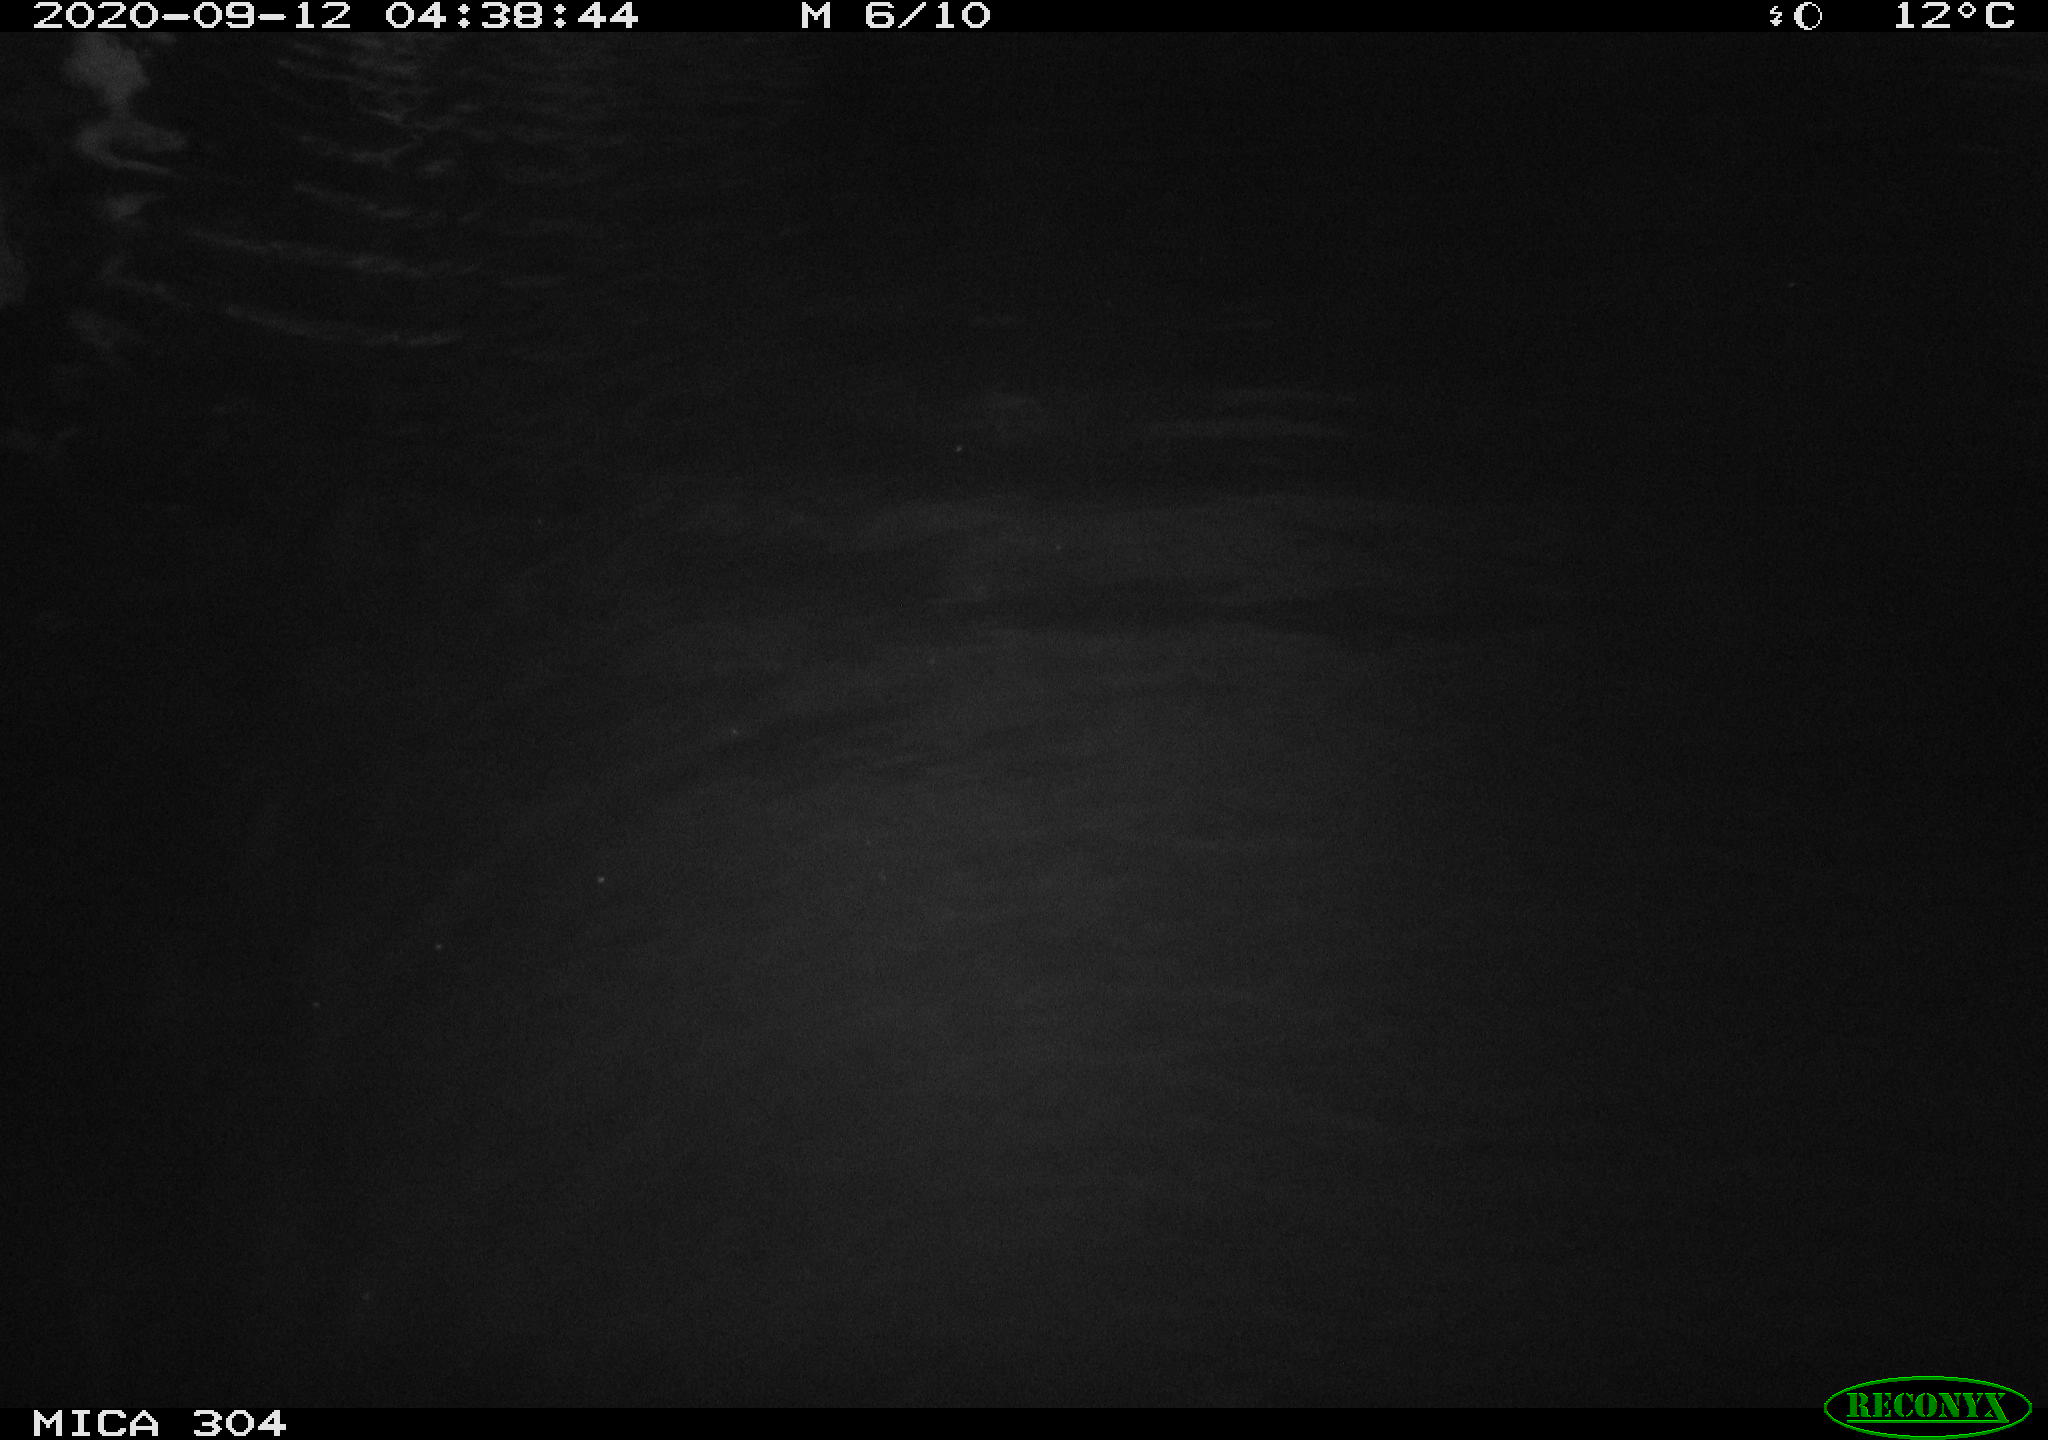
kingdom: Animalia
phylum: Chordata
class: Mammalia
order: Rodentia
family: Cricetidae
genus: Ondatra
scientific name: Ondatra zibethicus
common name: Muskrat
